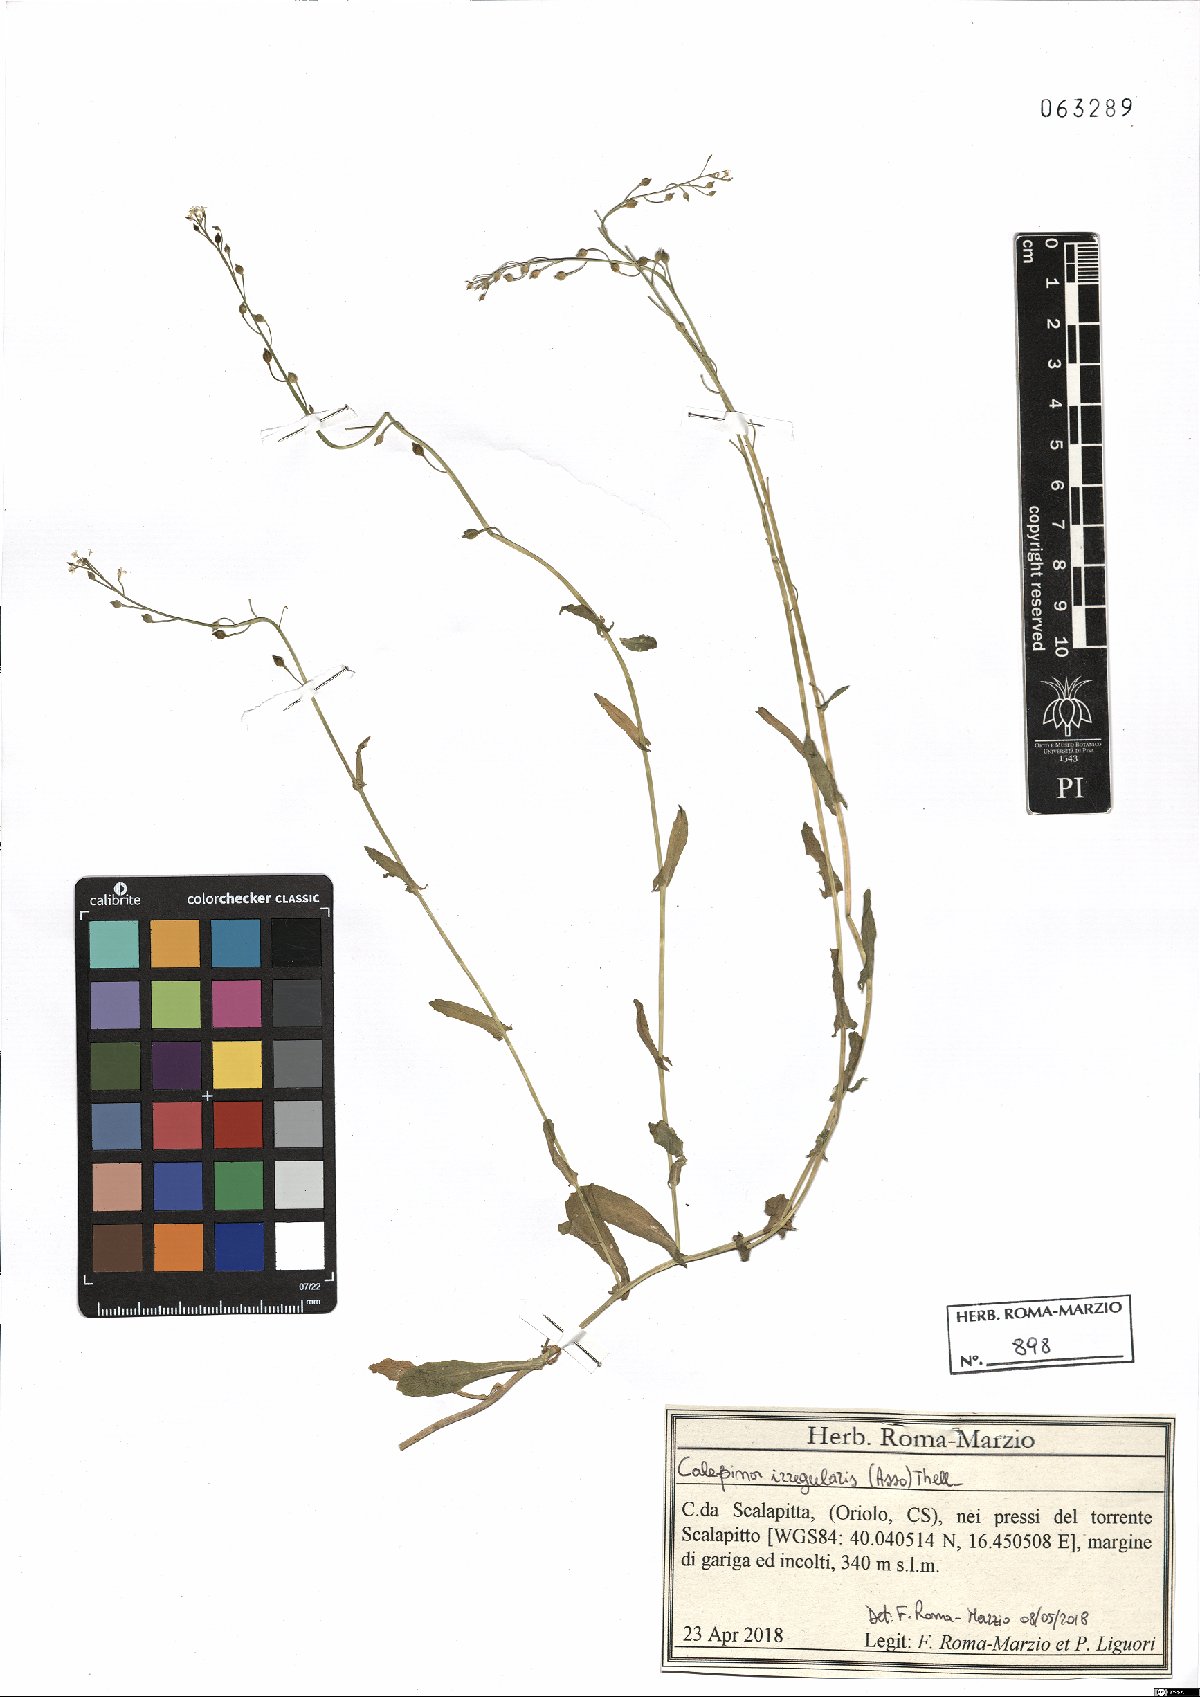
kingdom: Plantae
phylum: Tracheophyta
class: Magnoliopsida
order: Brassicales
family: Brassicaceae
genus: Calepina
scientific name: Calepina irregularis
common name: White ballmustard
